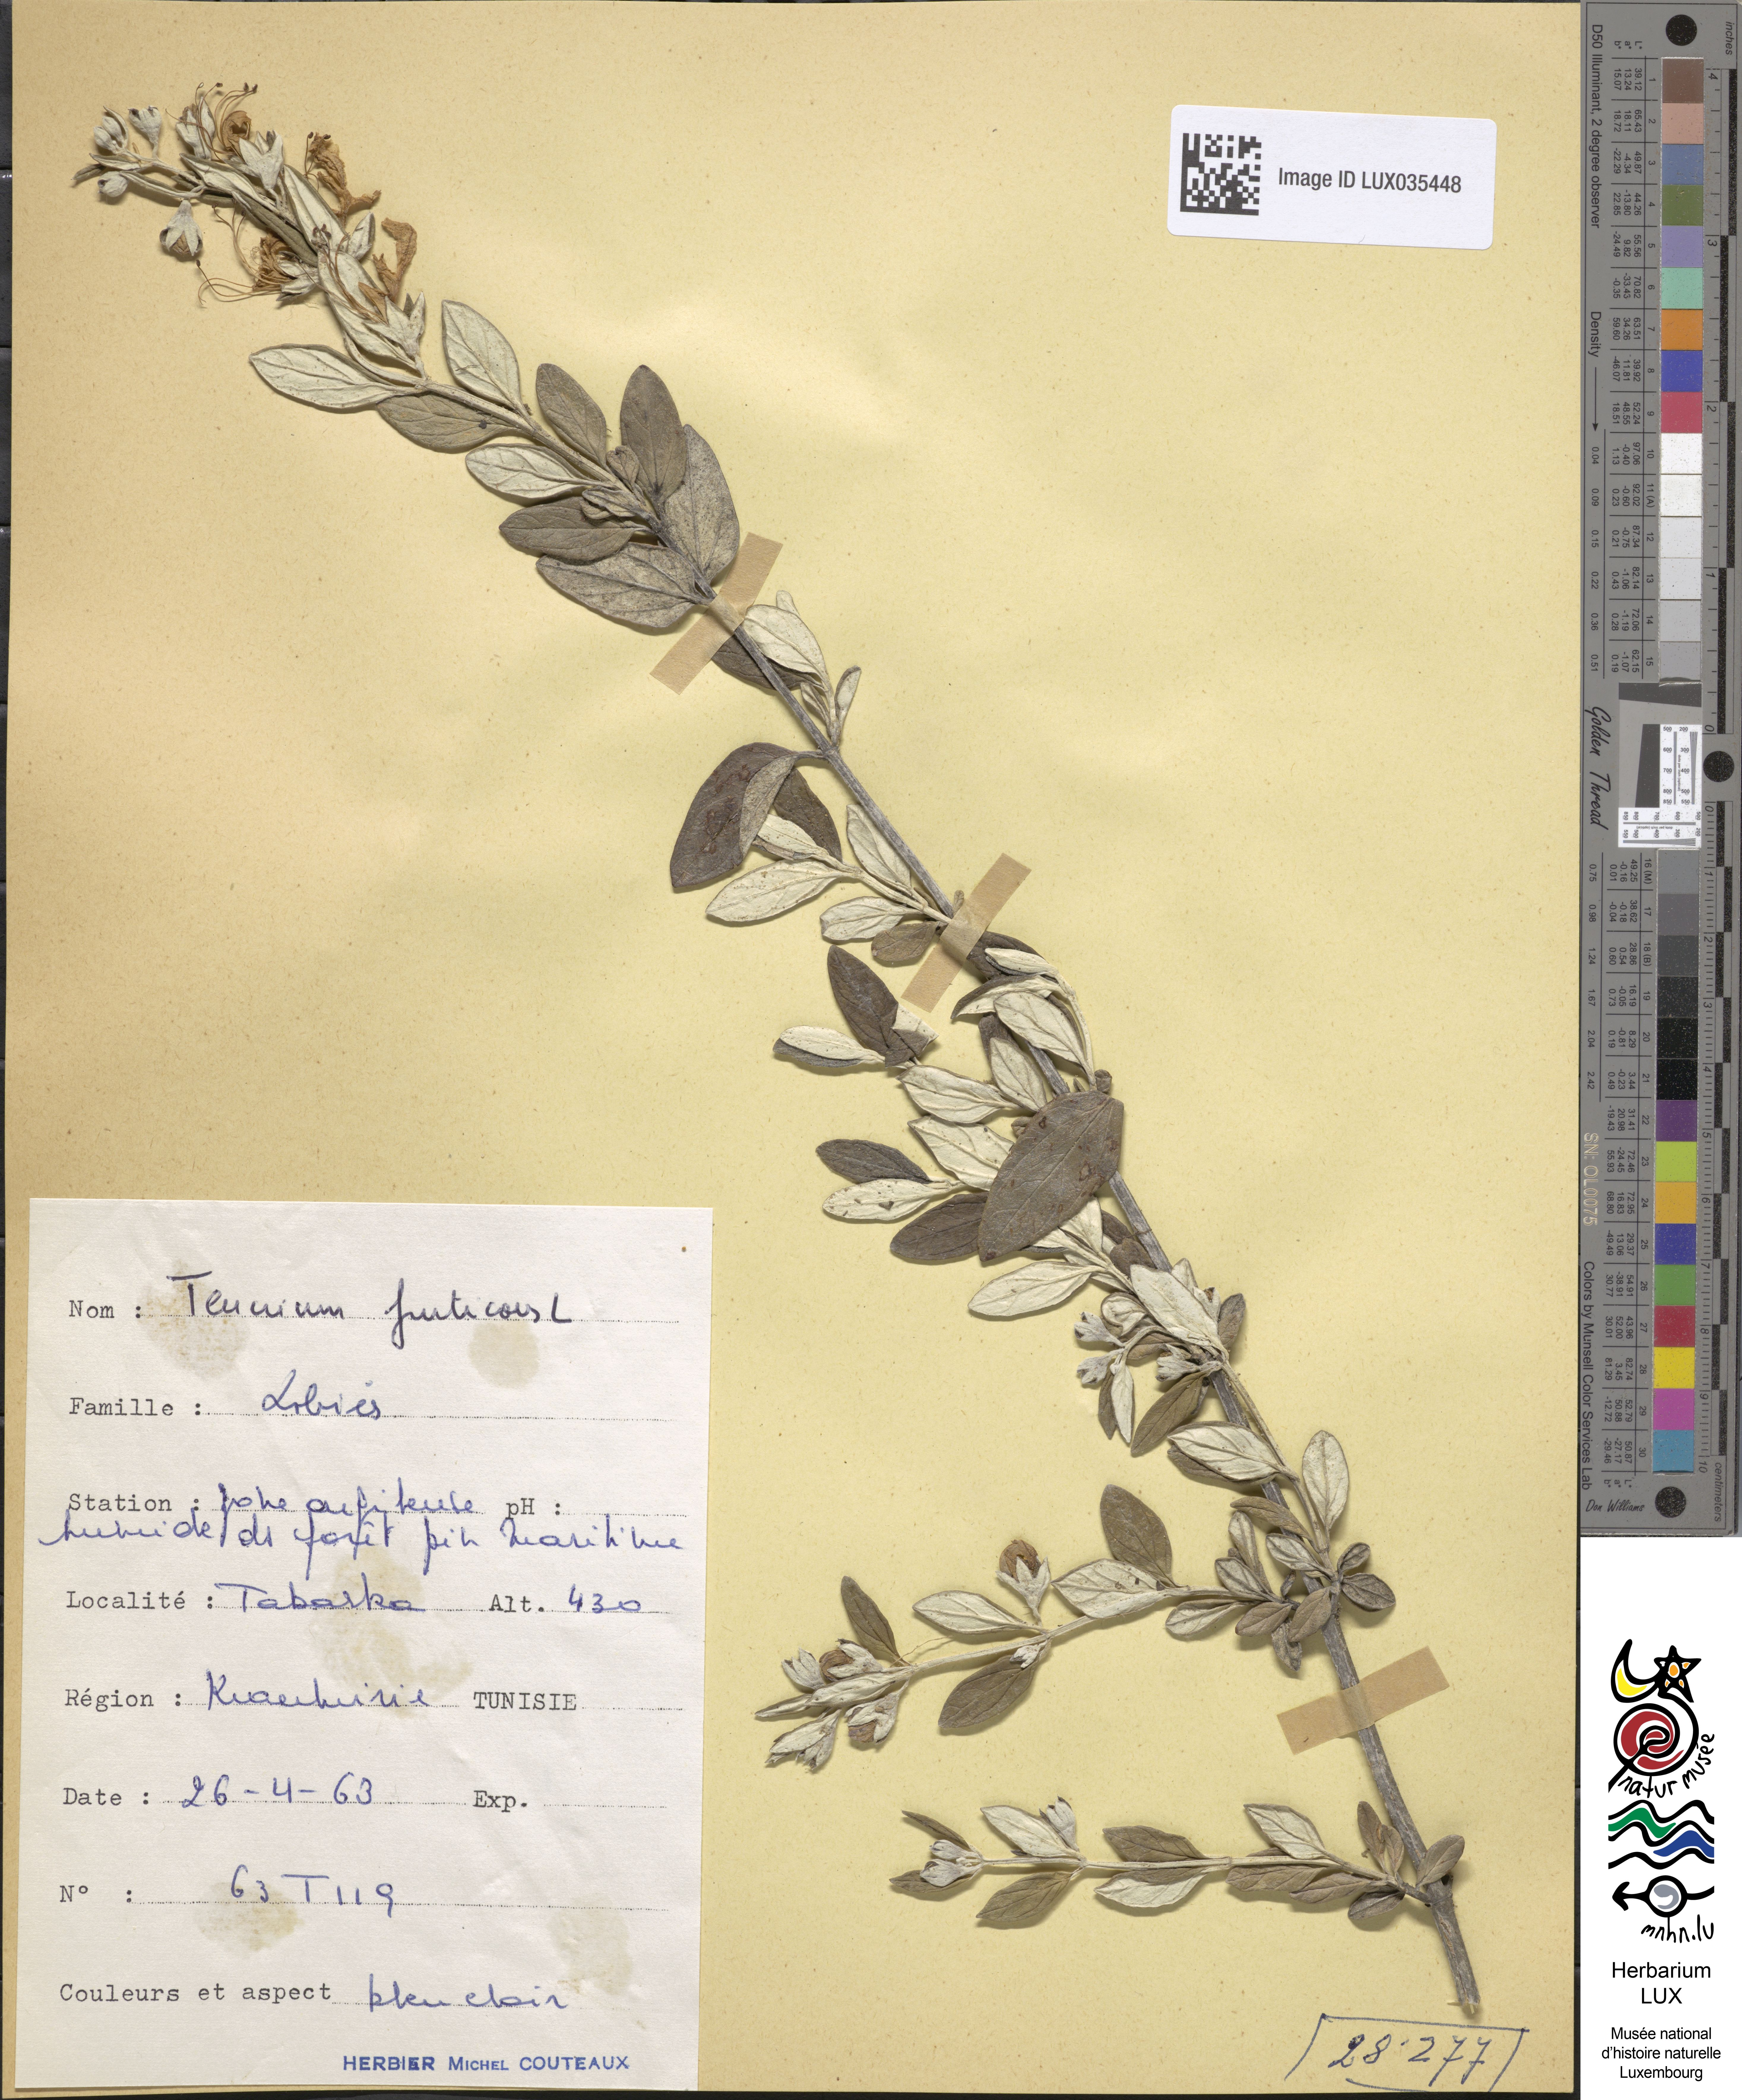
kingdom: Plantae
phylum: Tracheophyta
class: Magnoliopsida
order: Lamiales
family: Lamiaceae
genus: Teucrium
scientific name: Teucrium fruticans
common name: Shrubby germander
